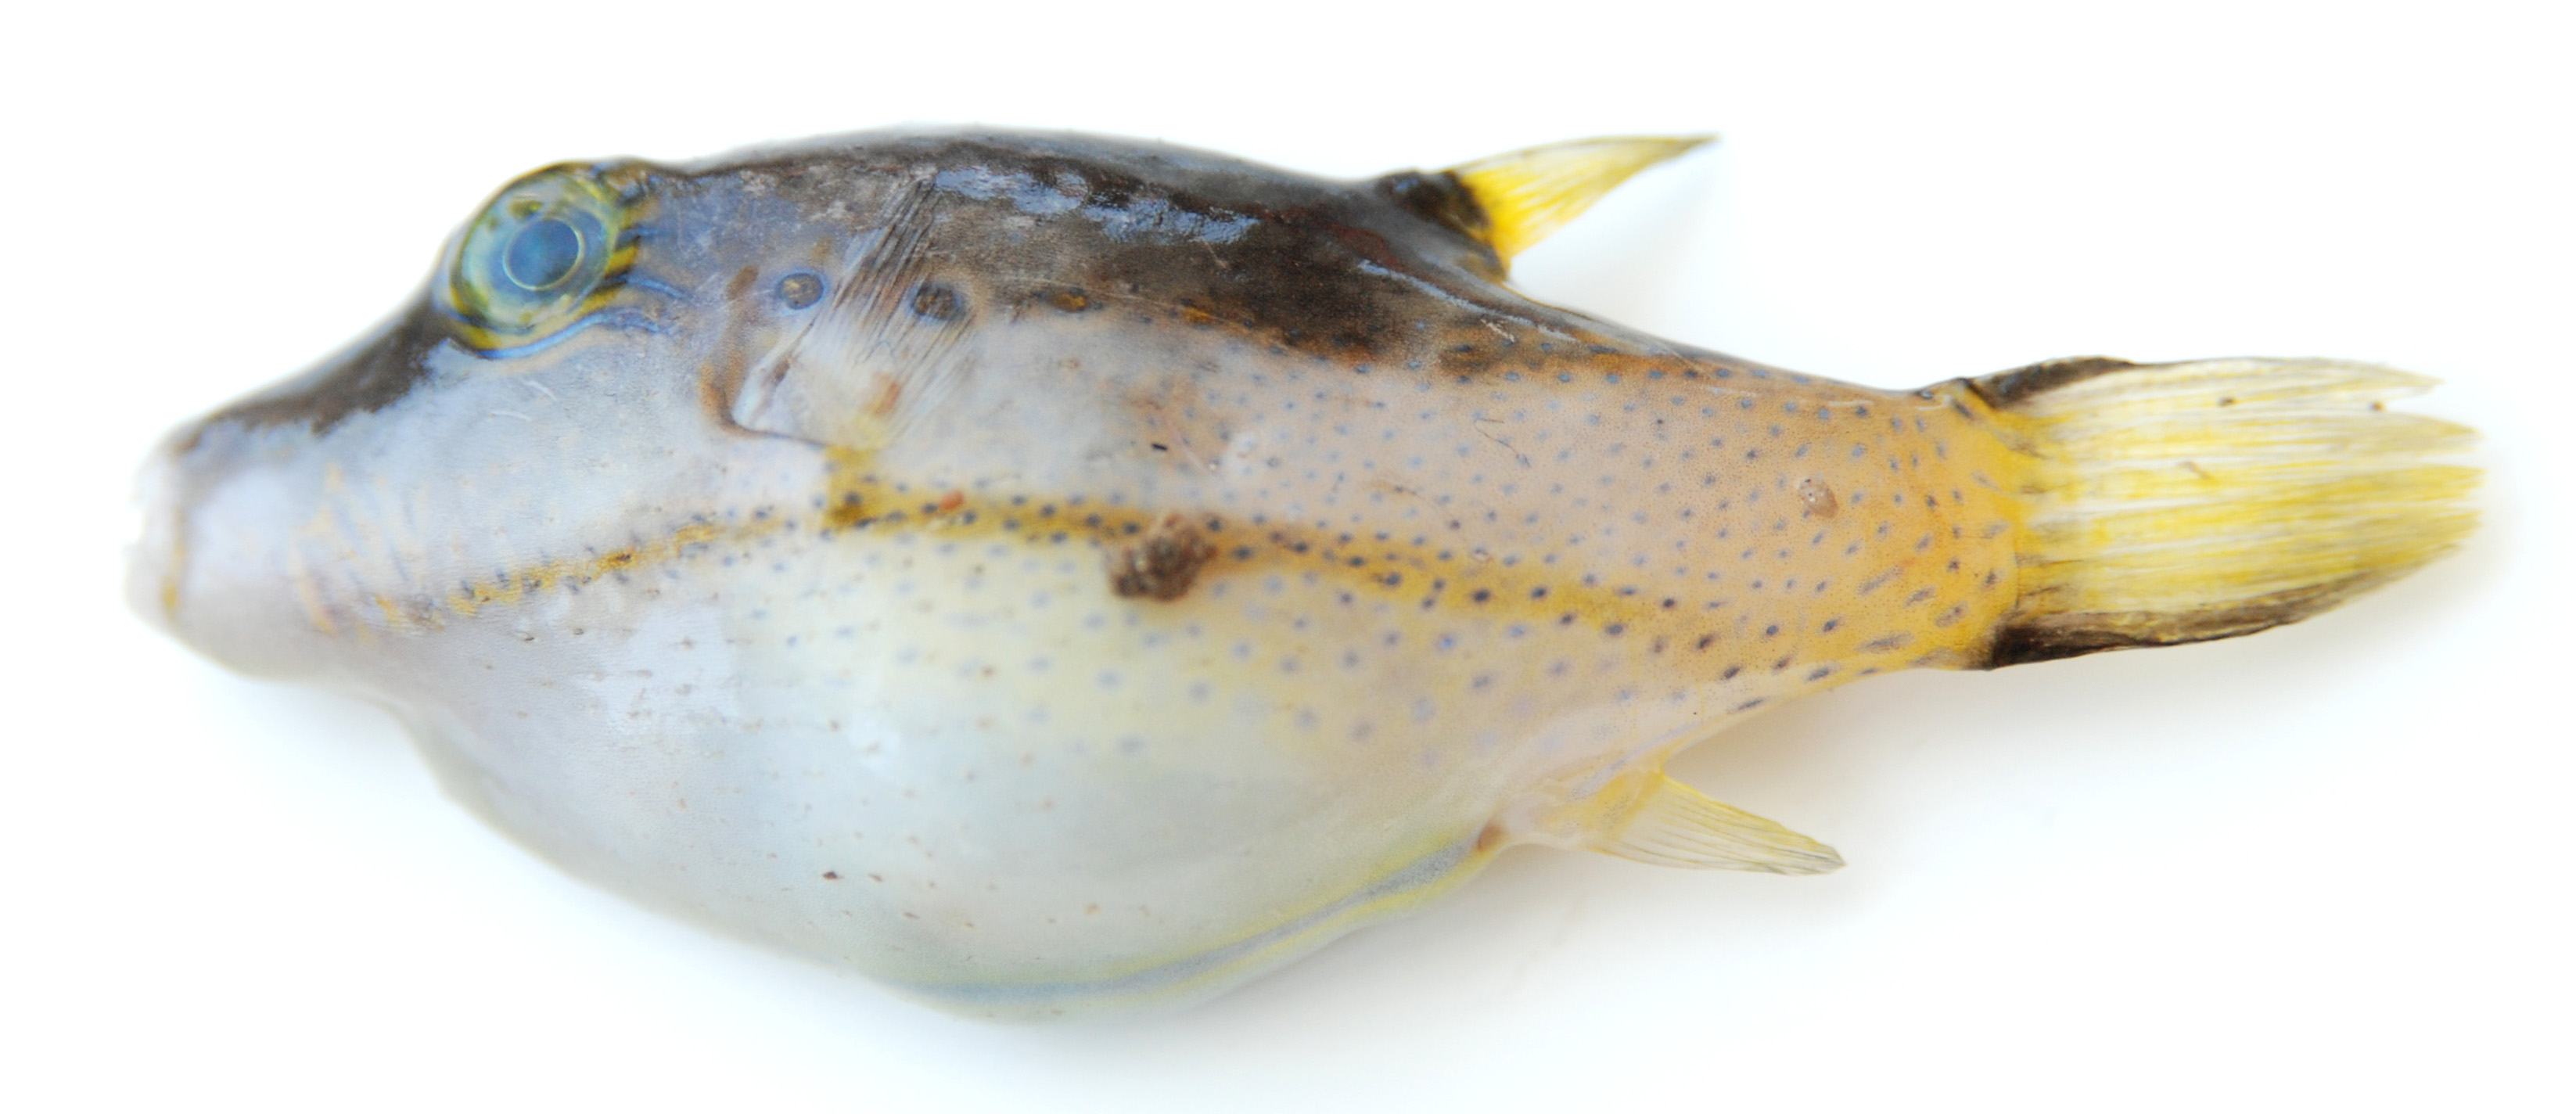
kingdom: Animalia
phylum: Chordata
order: Tetraodontiformes
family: Tetraodontidae
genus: Canthigaster
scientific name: Canthigaster smithae
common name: Bicolored toby
